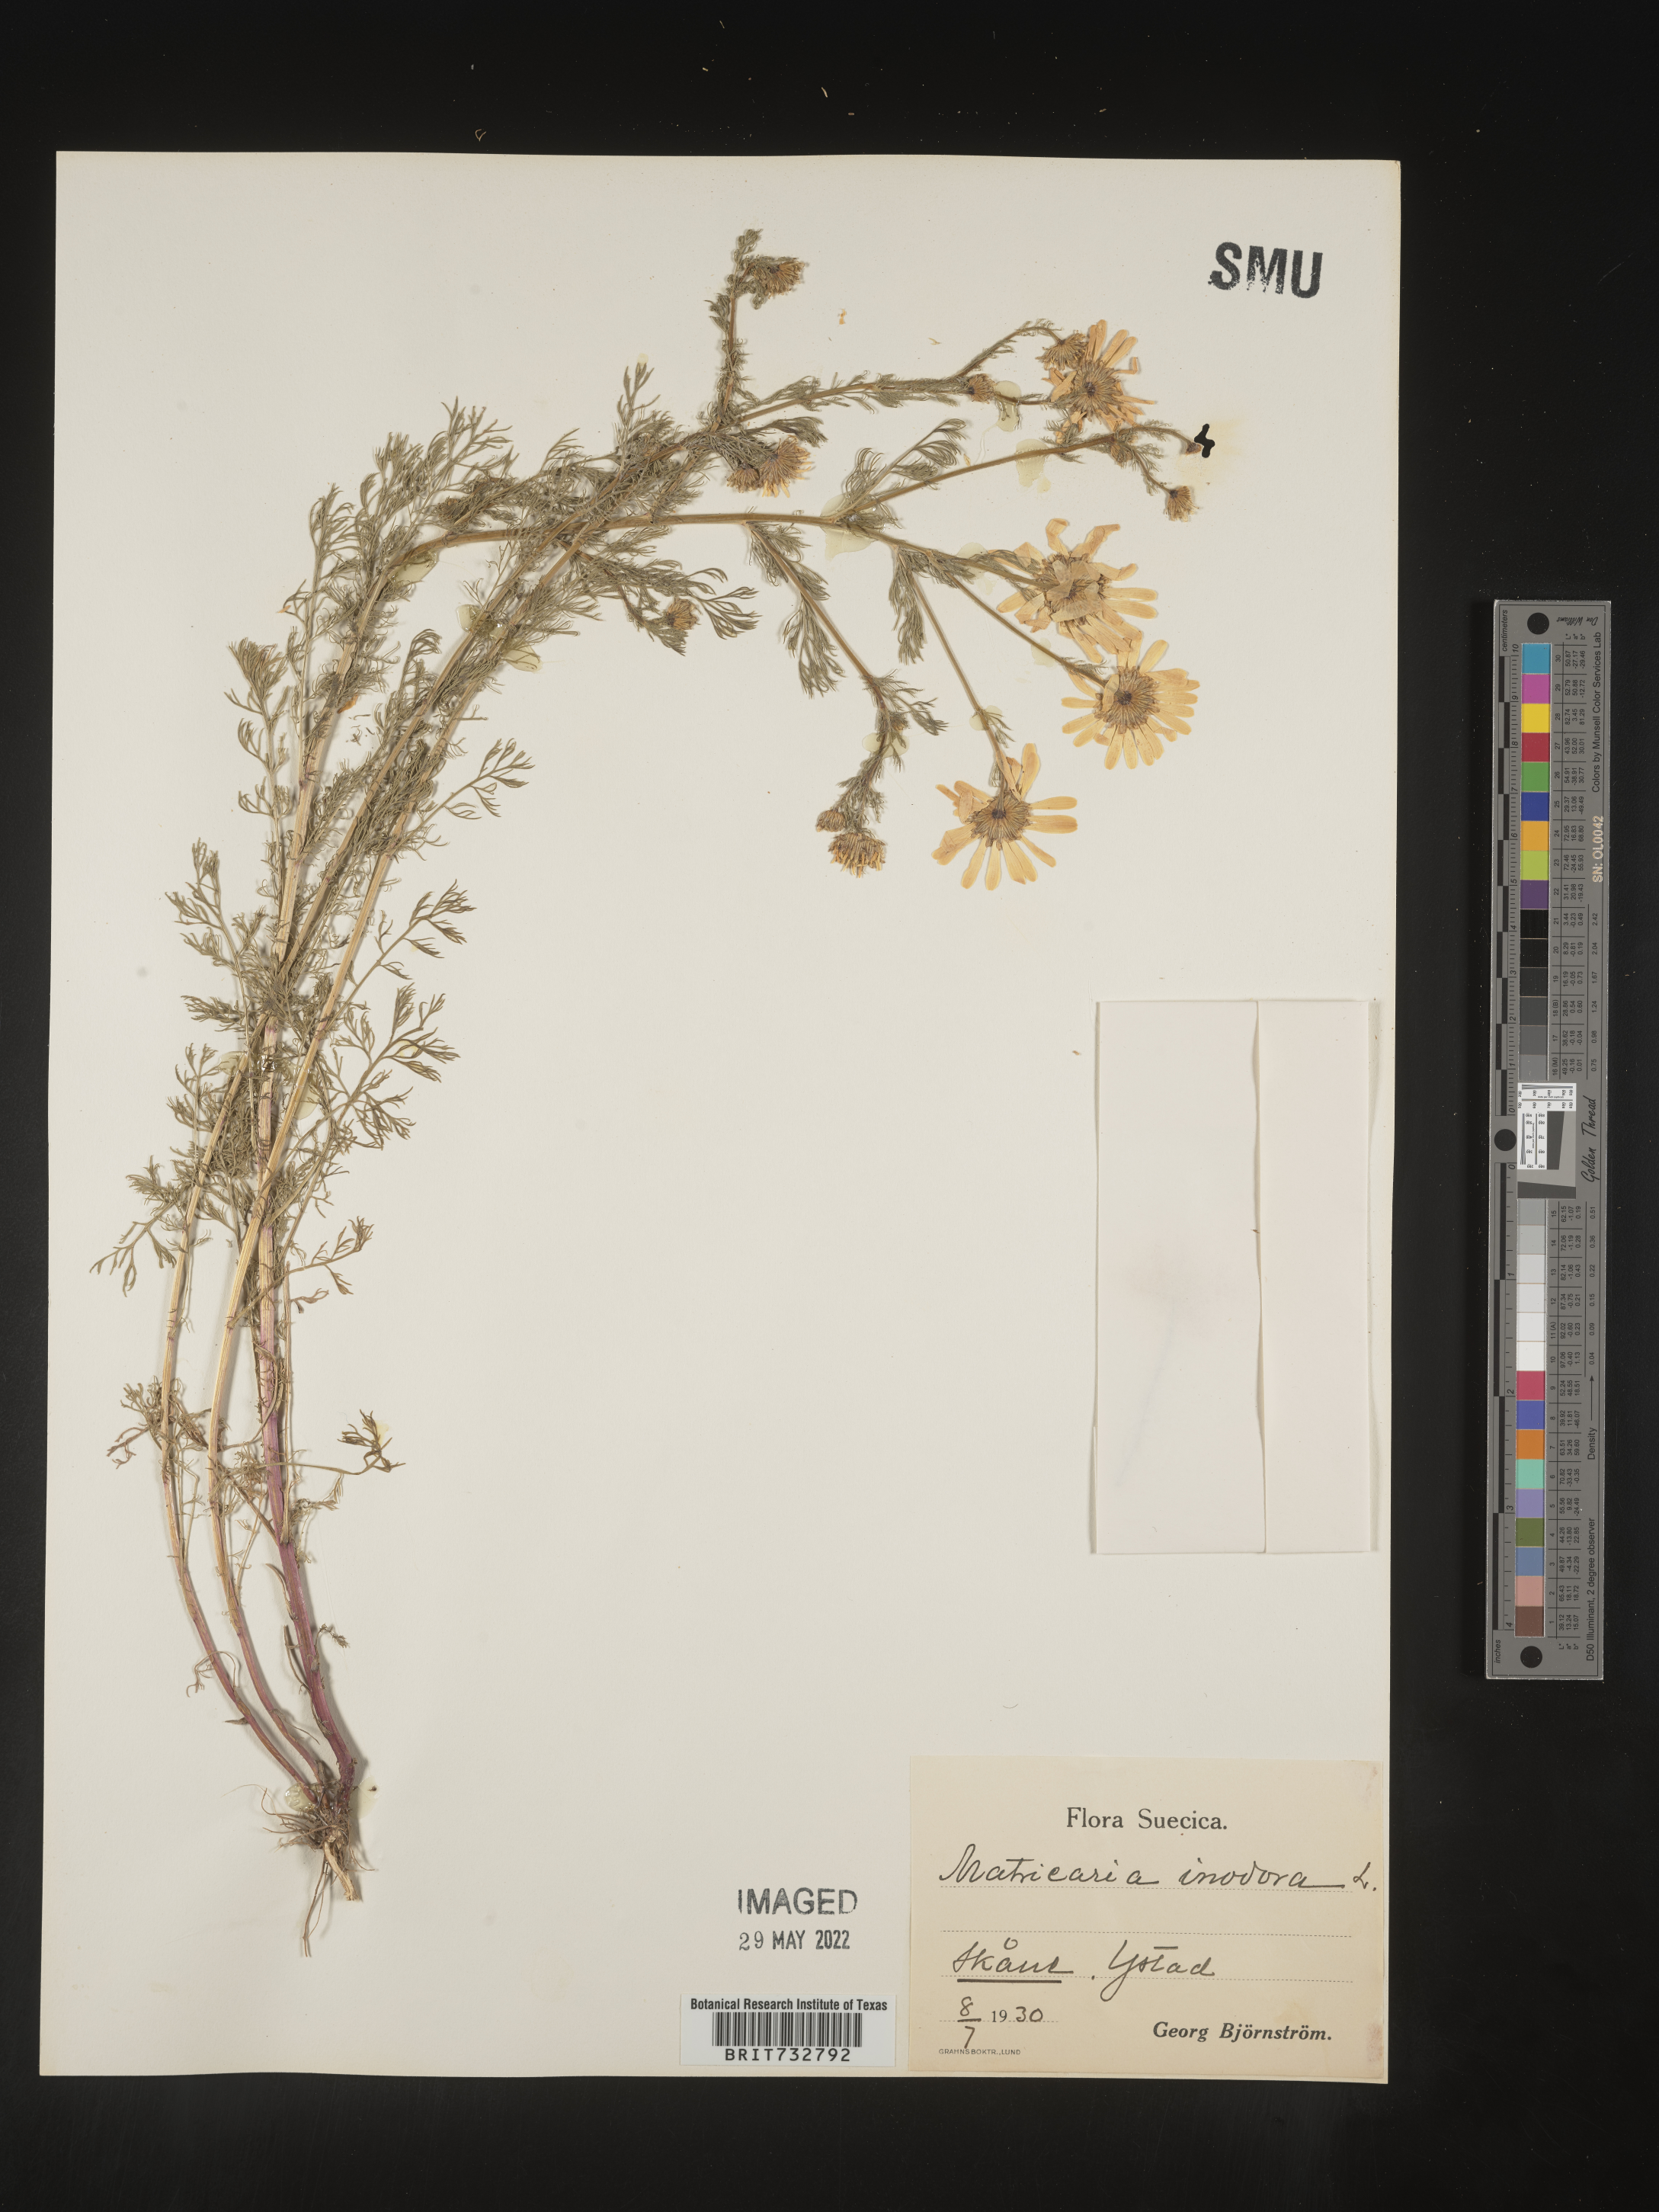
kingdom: Plantae
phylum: Tracheophyta
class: Magnoliopsida
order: Asterales
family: Asteraceae
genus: Matricaria
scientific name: Matricaria
